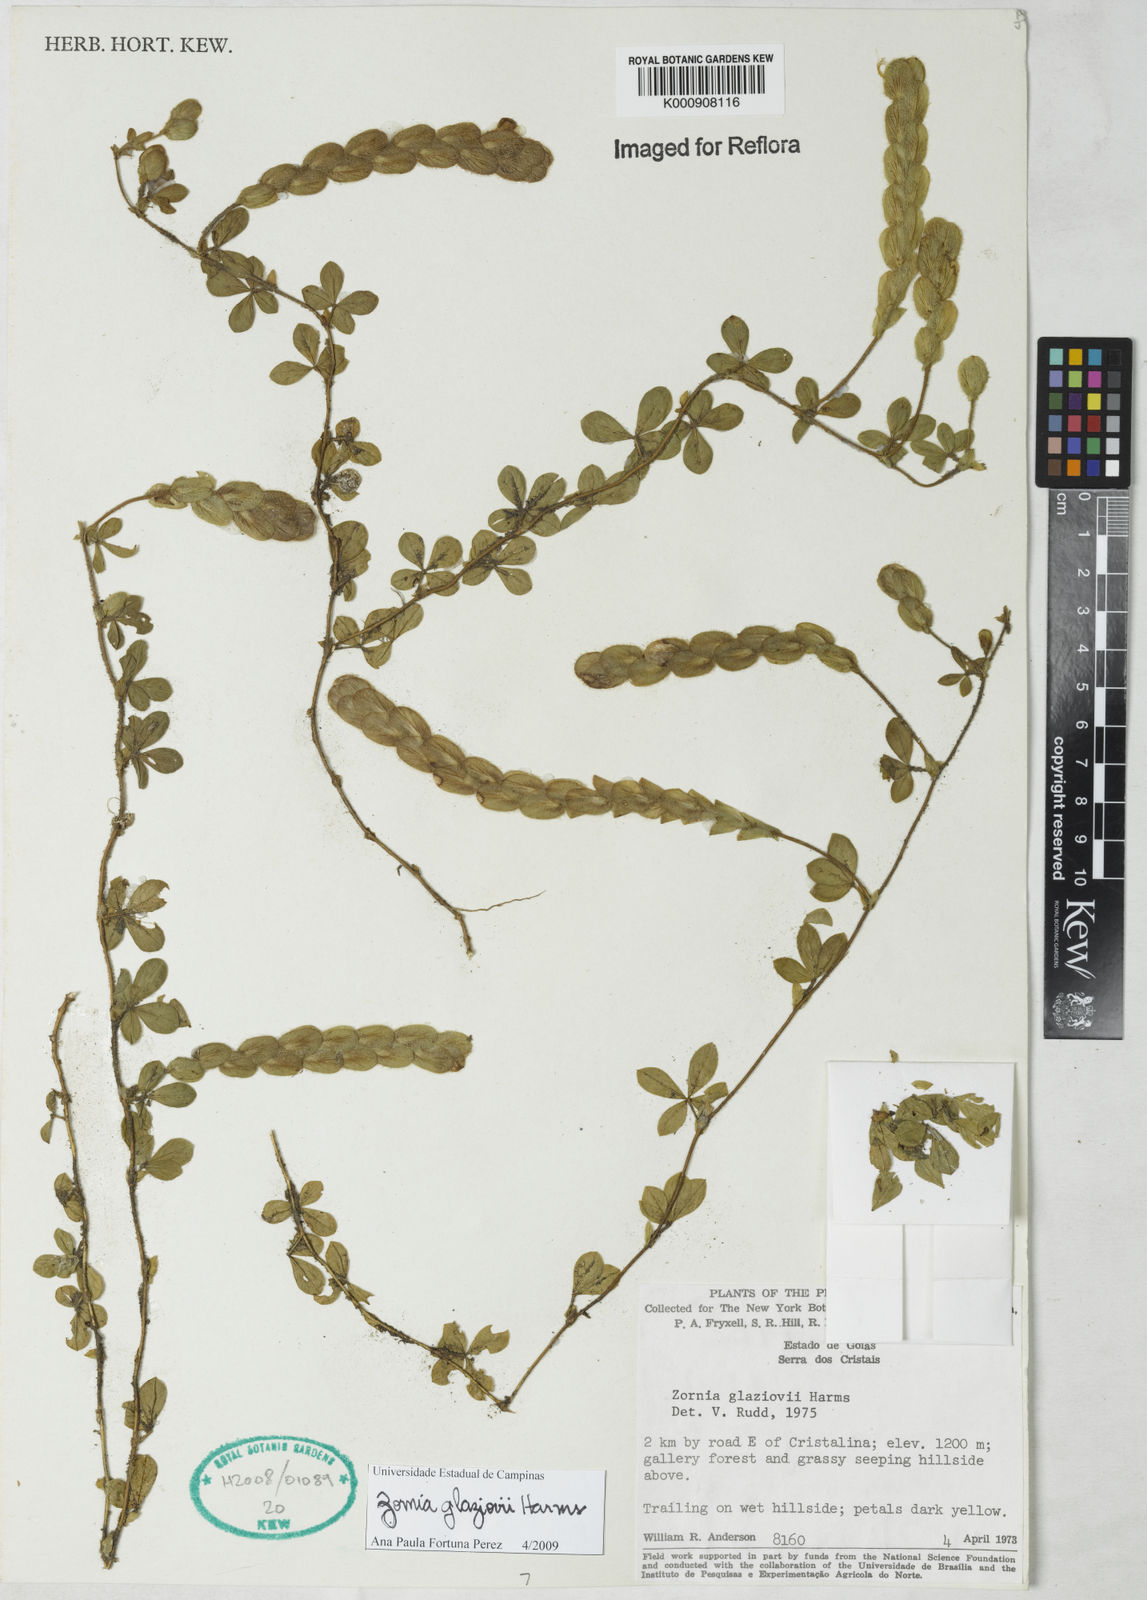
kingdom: Plantae
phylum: Tracheophyta
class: Magnoliopsida
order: Fabales
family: Fabaceae
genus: Zornia
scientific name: Zornia glaziovii
